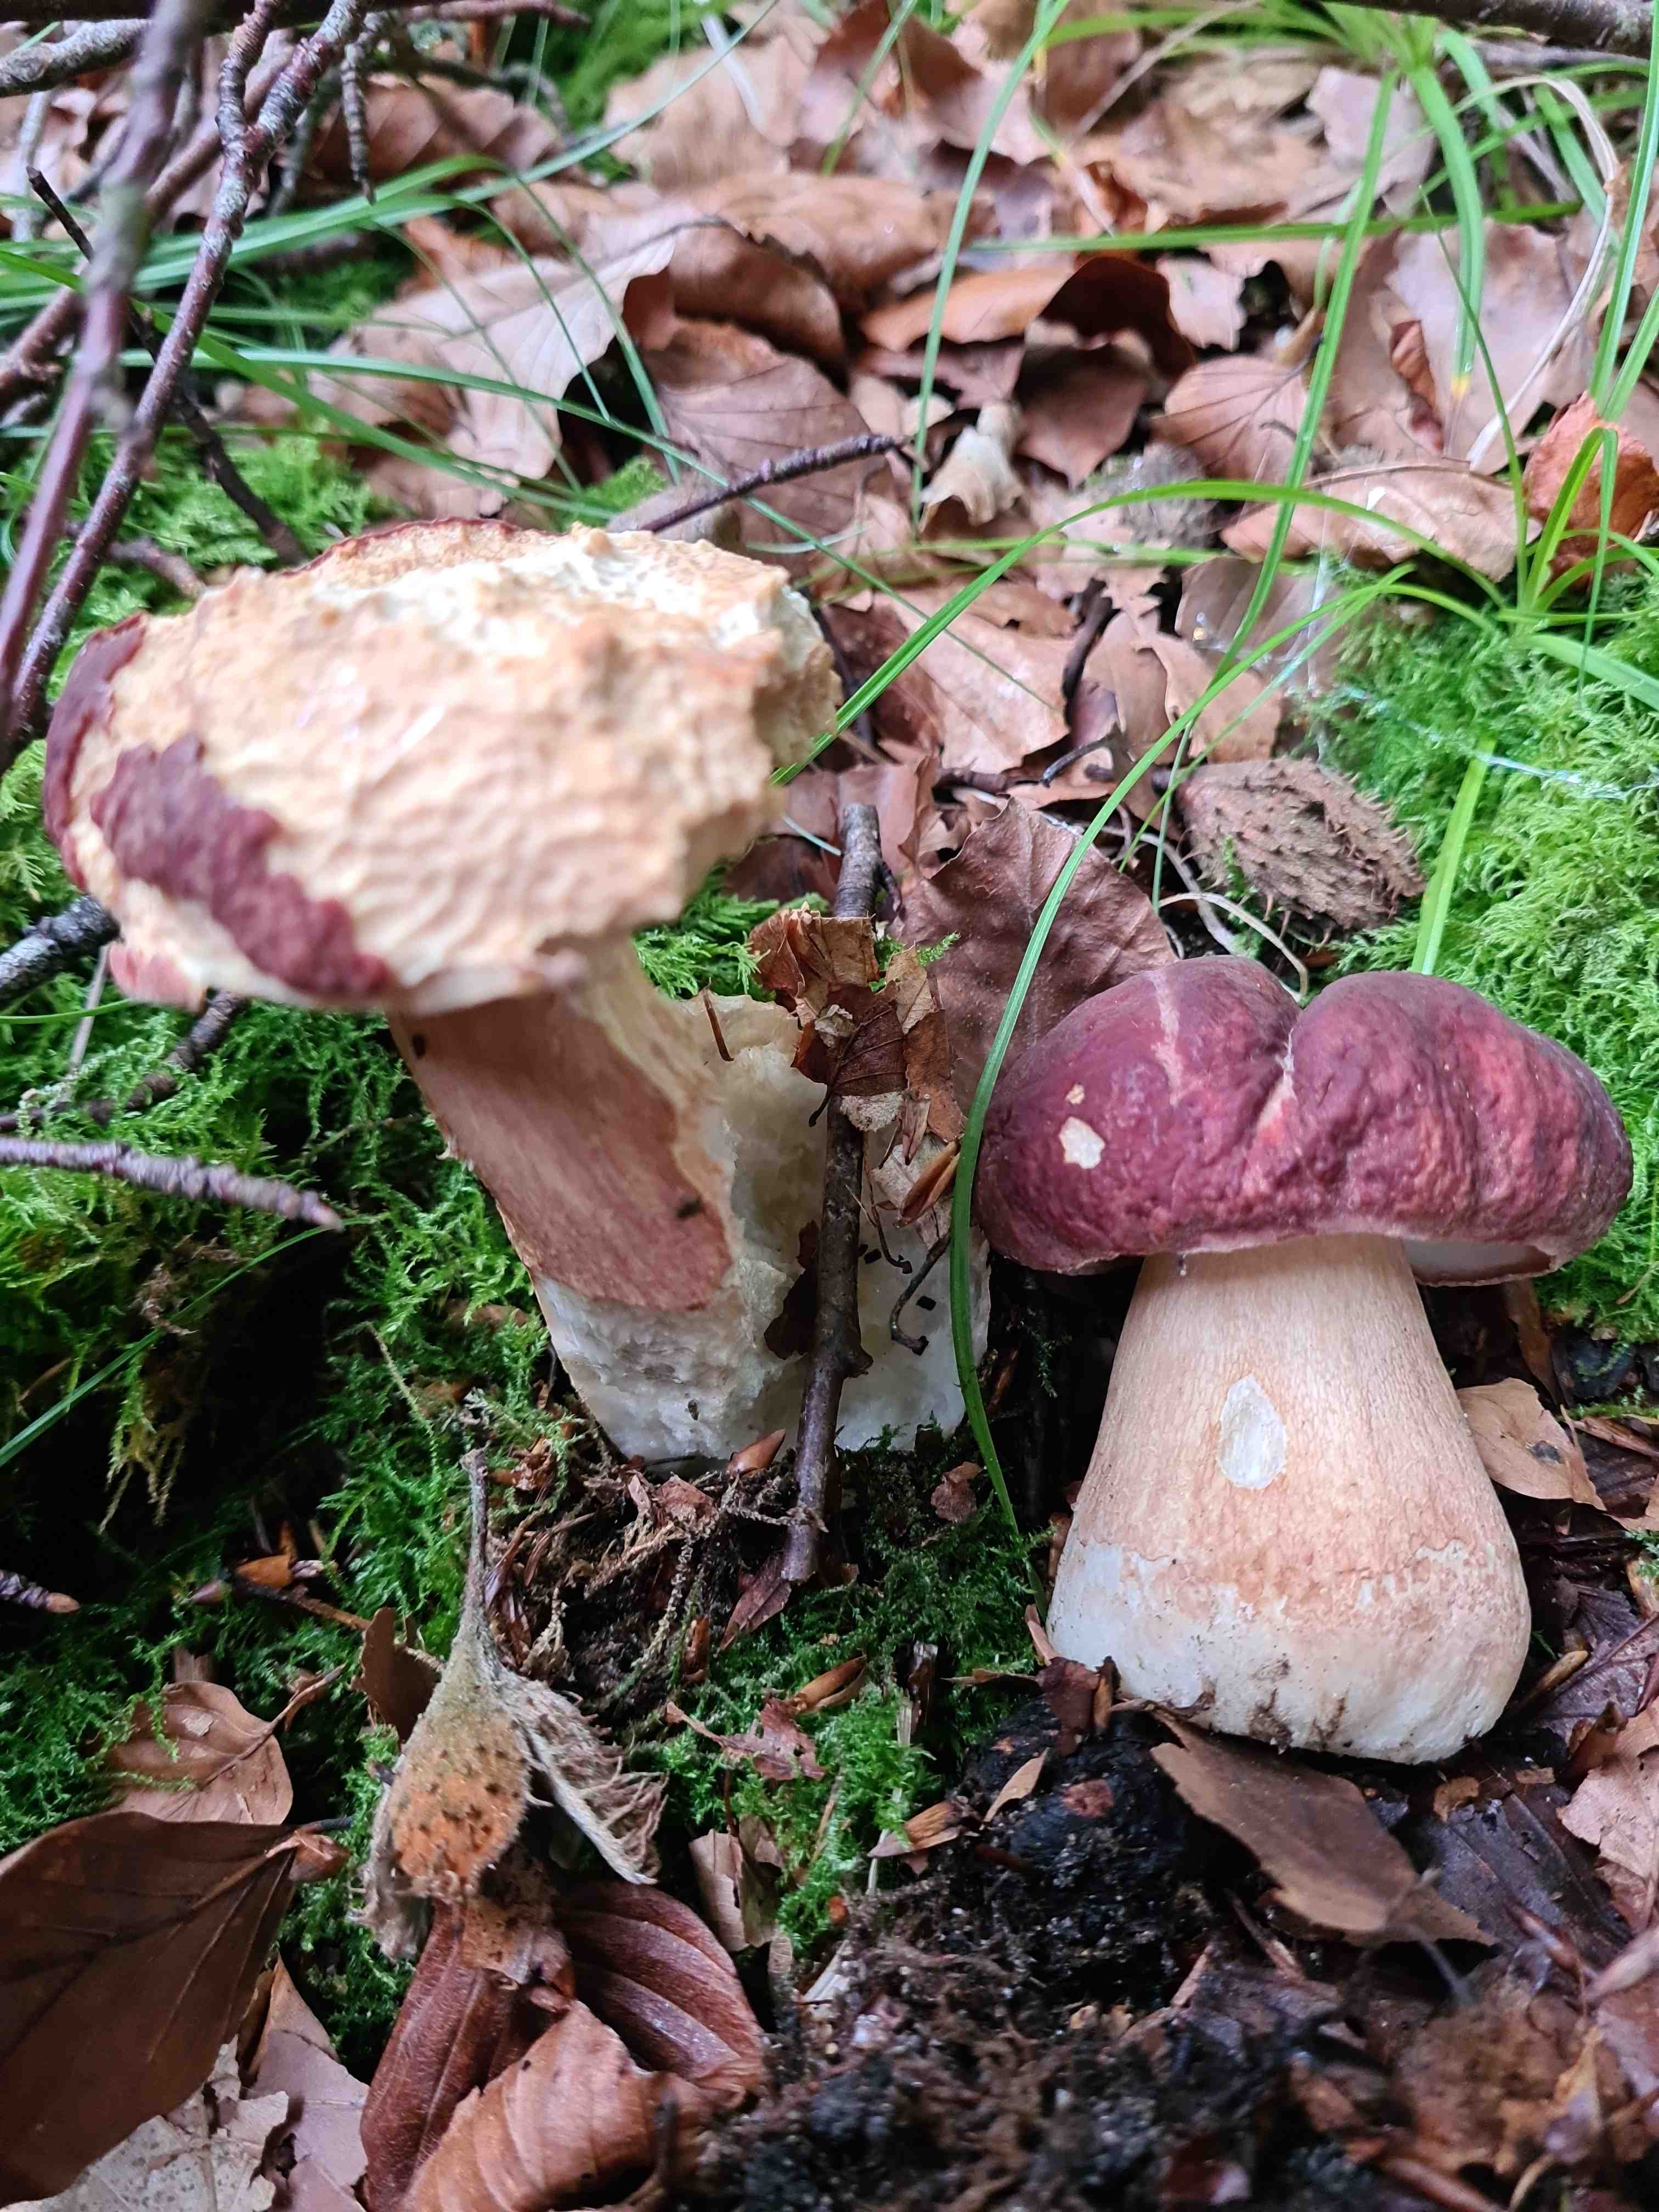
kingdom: Fungi
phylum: Basidiomycota
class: Agaricomycetes
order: Boletales
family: Boletaceae
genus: Boletus
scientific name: Boletus pinophilus
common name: rødbrun rørhat
